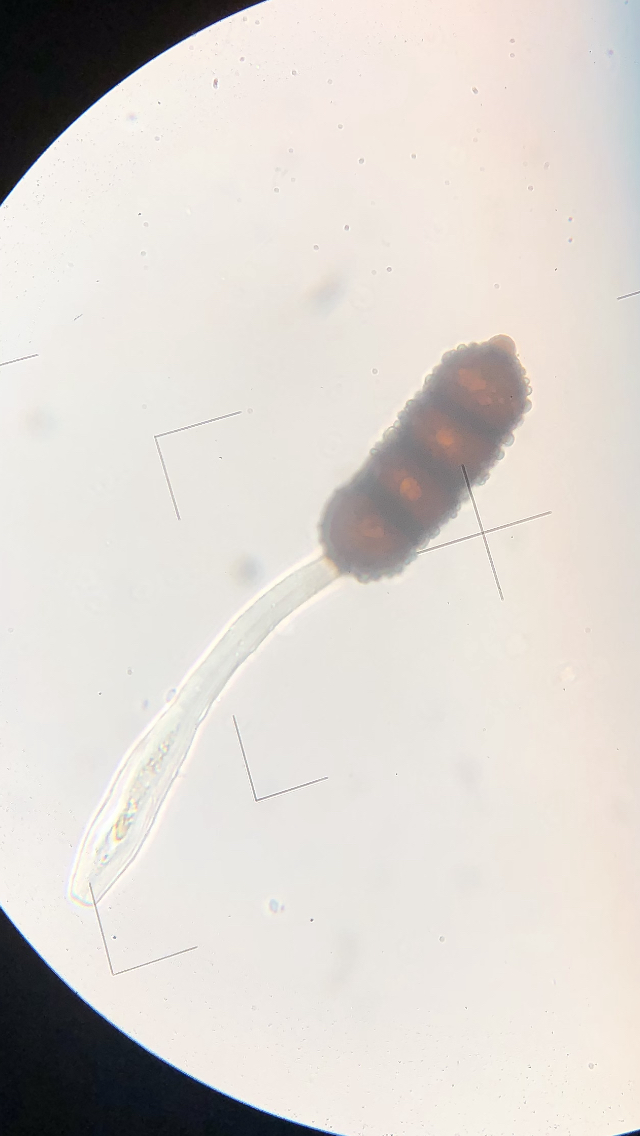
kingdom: Fungi
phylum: Basidiomycota
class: Pucciniomycetes
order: Pucciniales
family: Phragmidiaceae
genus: Phragmidium
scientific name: Phragmidium violaceum
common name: violet flercellerust
